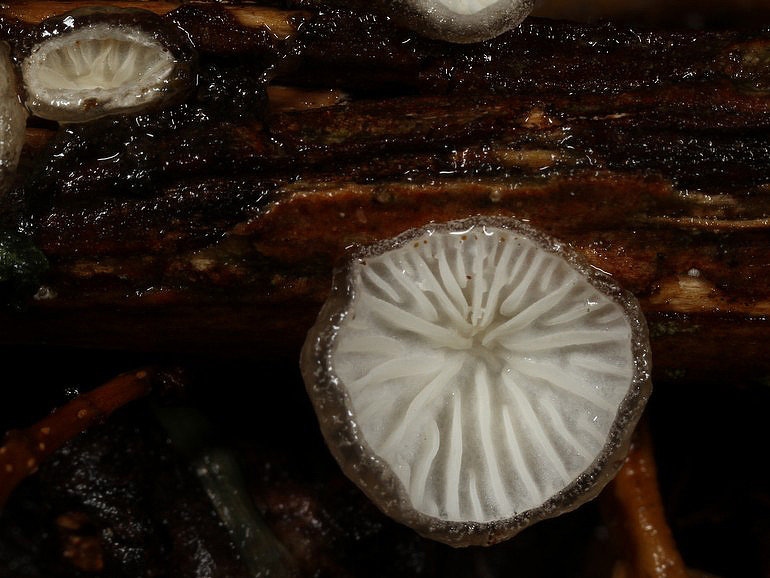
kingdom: Fungi
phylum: Basidiomycota
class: Agaricomycetes
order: Agaricales
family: Pleurotaceae
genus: Hohenbuehelia
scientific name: Hohenbuehelia cyphelliformis
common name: urte-filthat
